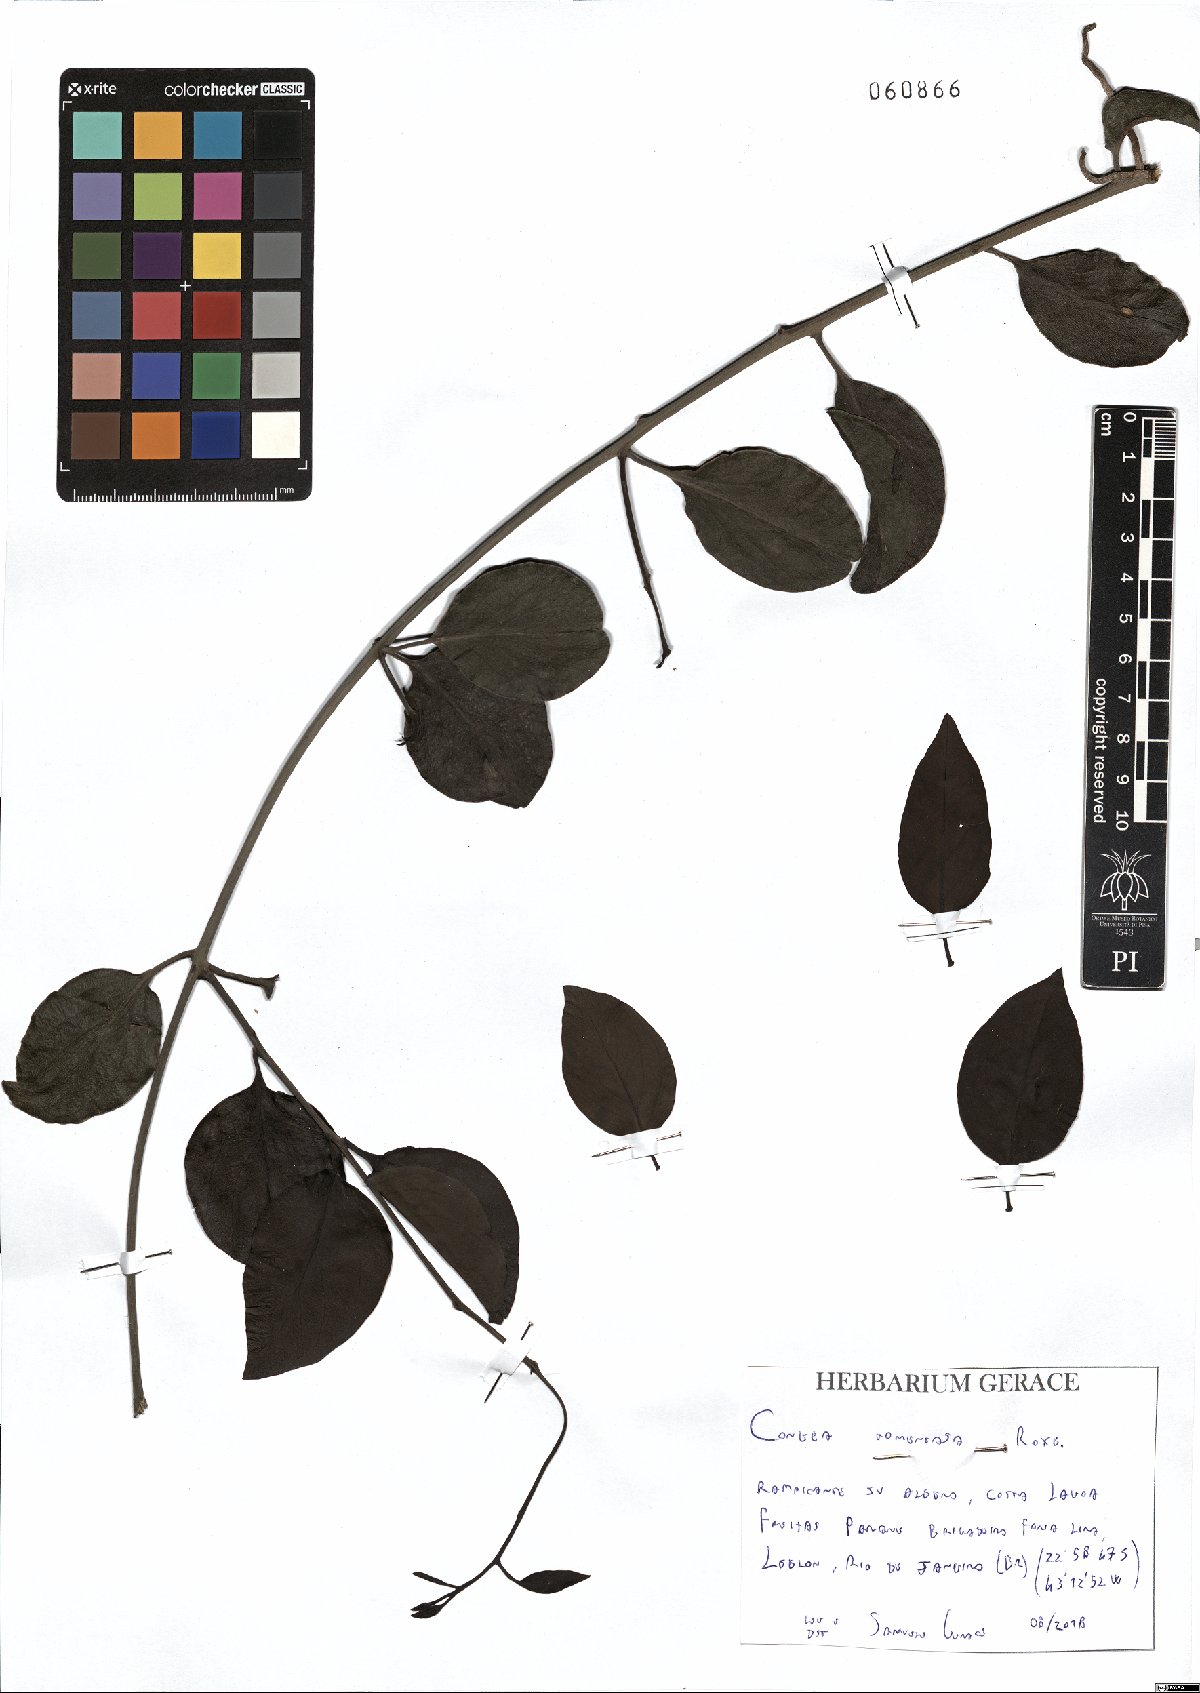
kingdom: Plantae
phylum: Tracheophyta
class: Magnoliopsida
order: Lamiales
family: Lamiaceae
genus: Congea
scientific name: Congea tomentosa
